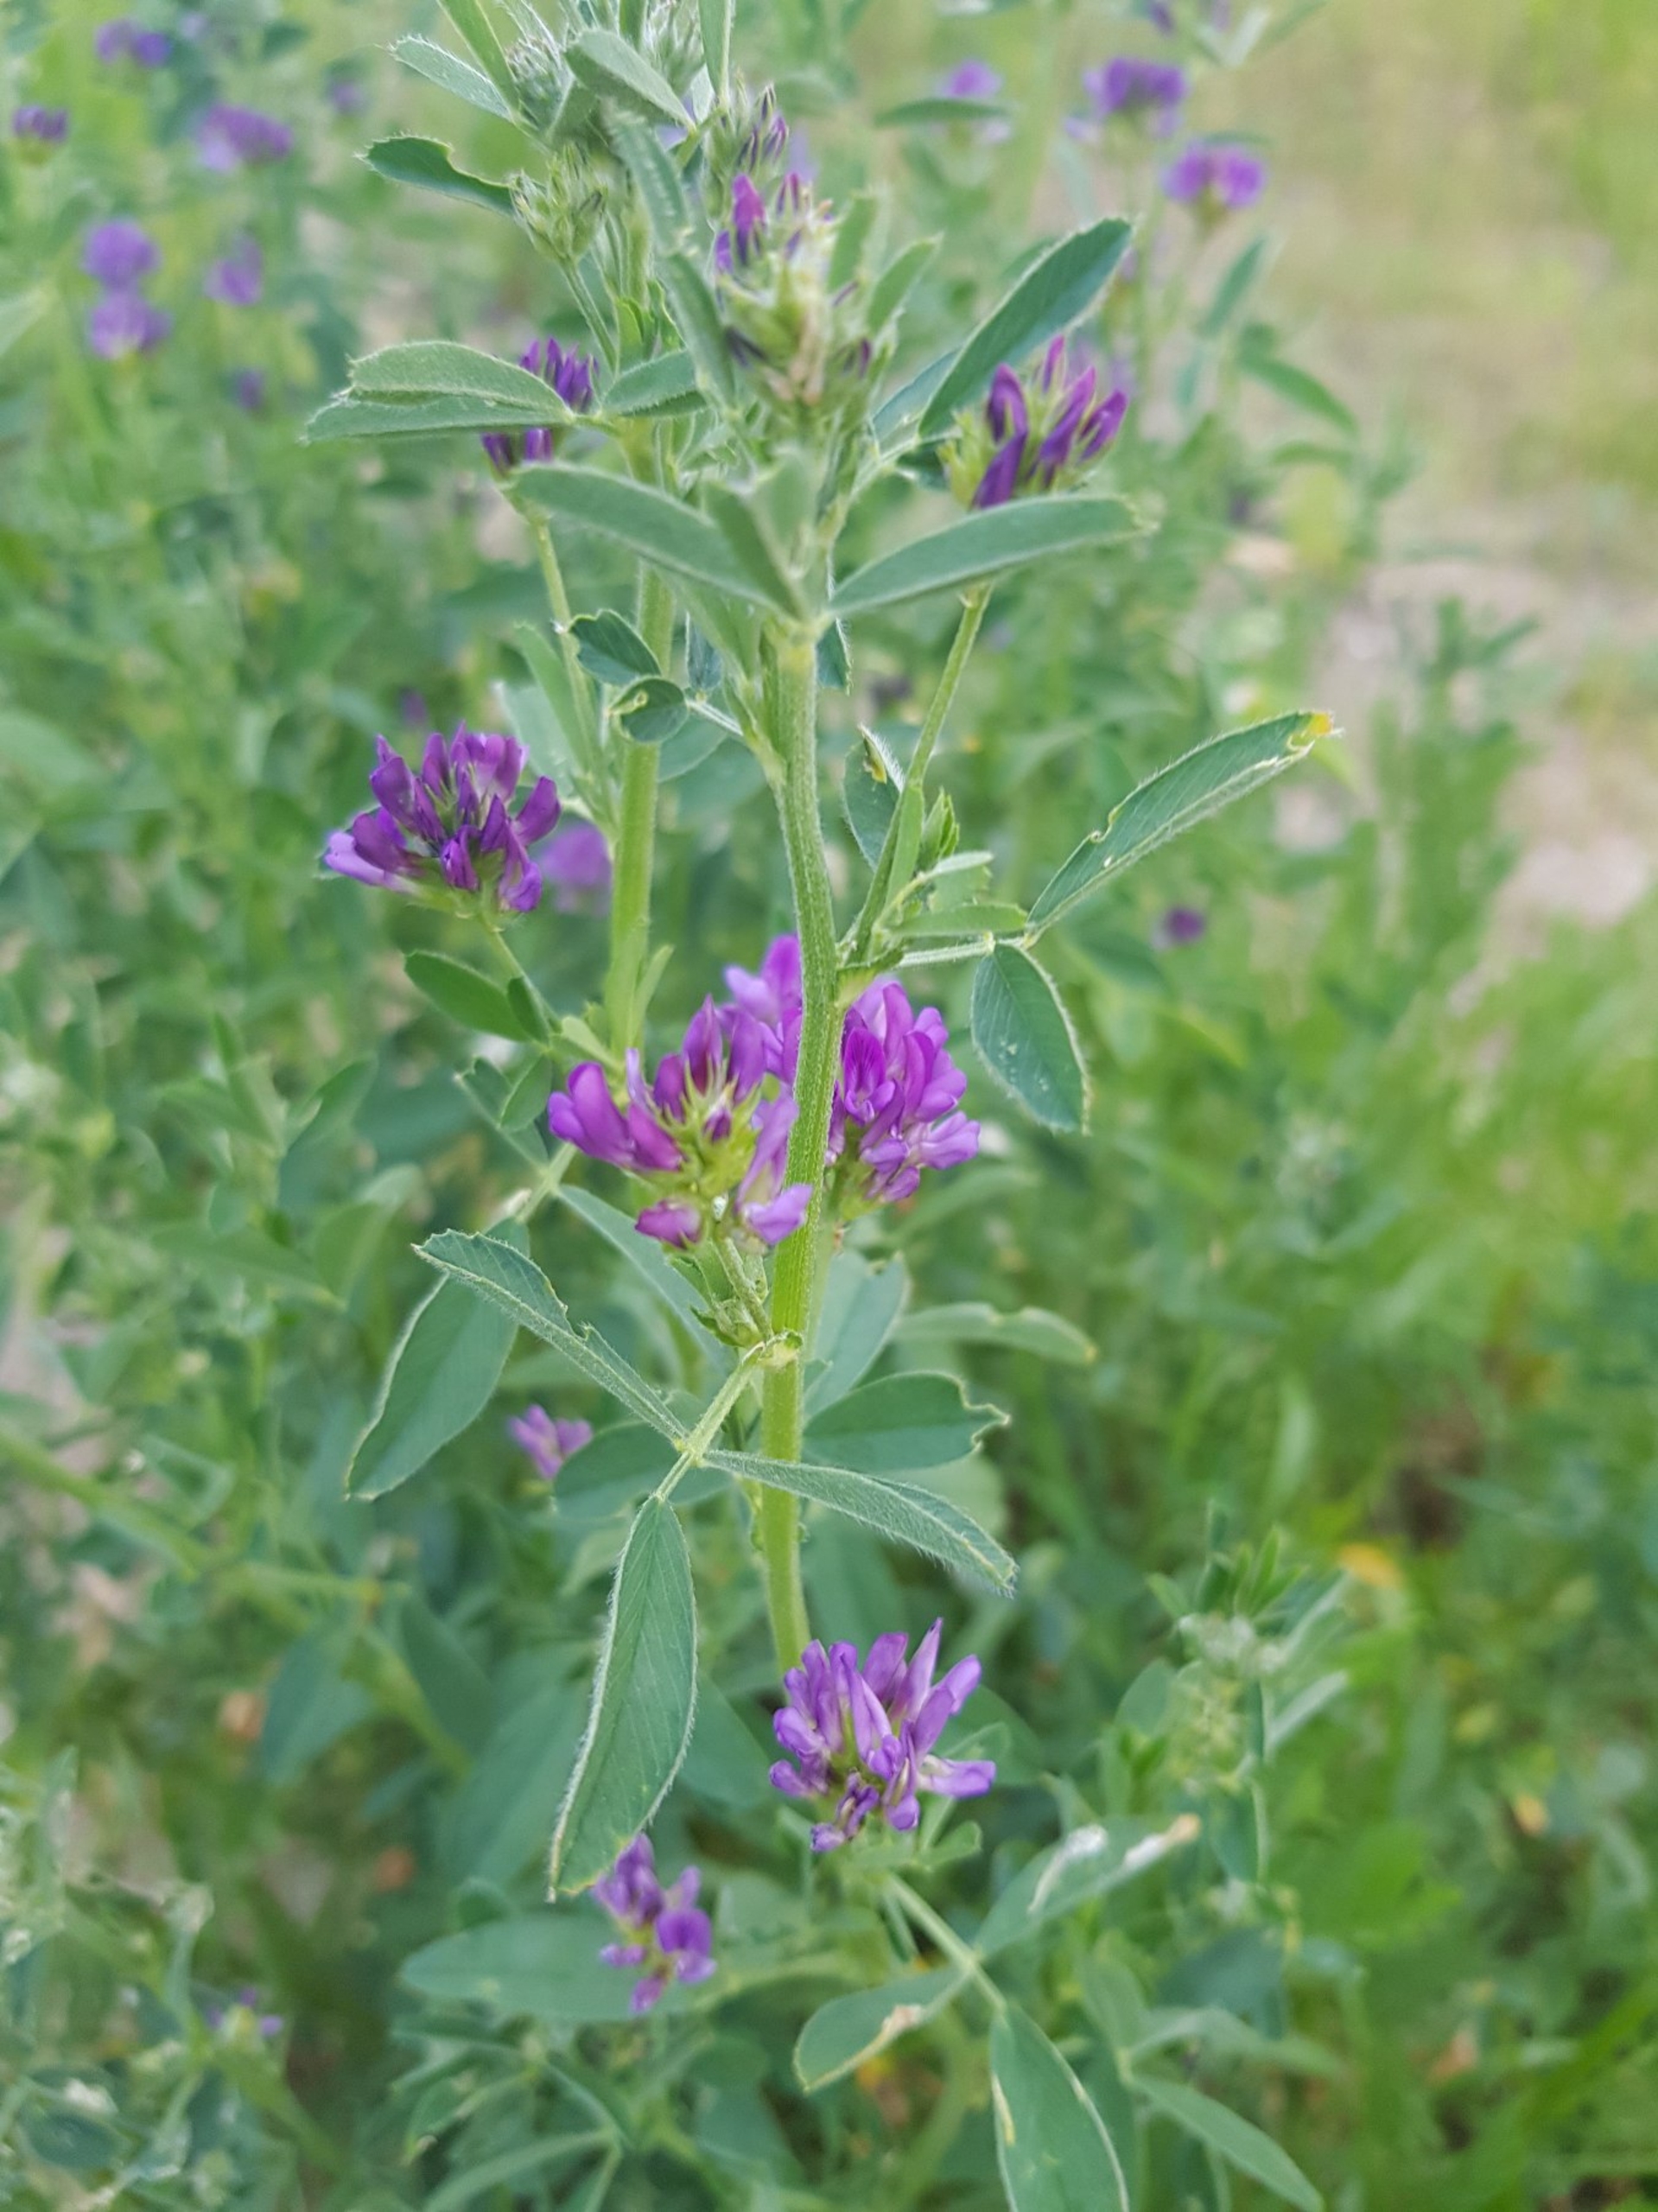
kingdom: Plantae
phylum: Tracheophyta
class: Magnoliopsida
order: Fabales
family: Fabaceae
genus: Medicago
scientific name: Medicago sativa
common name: Lucerne
